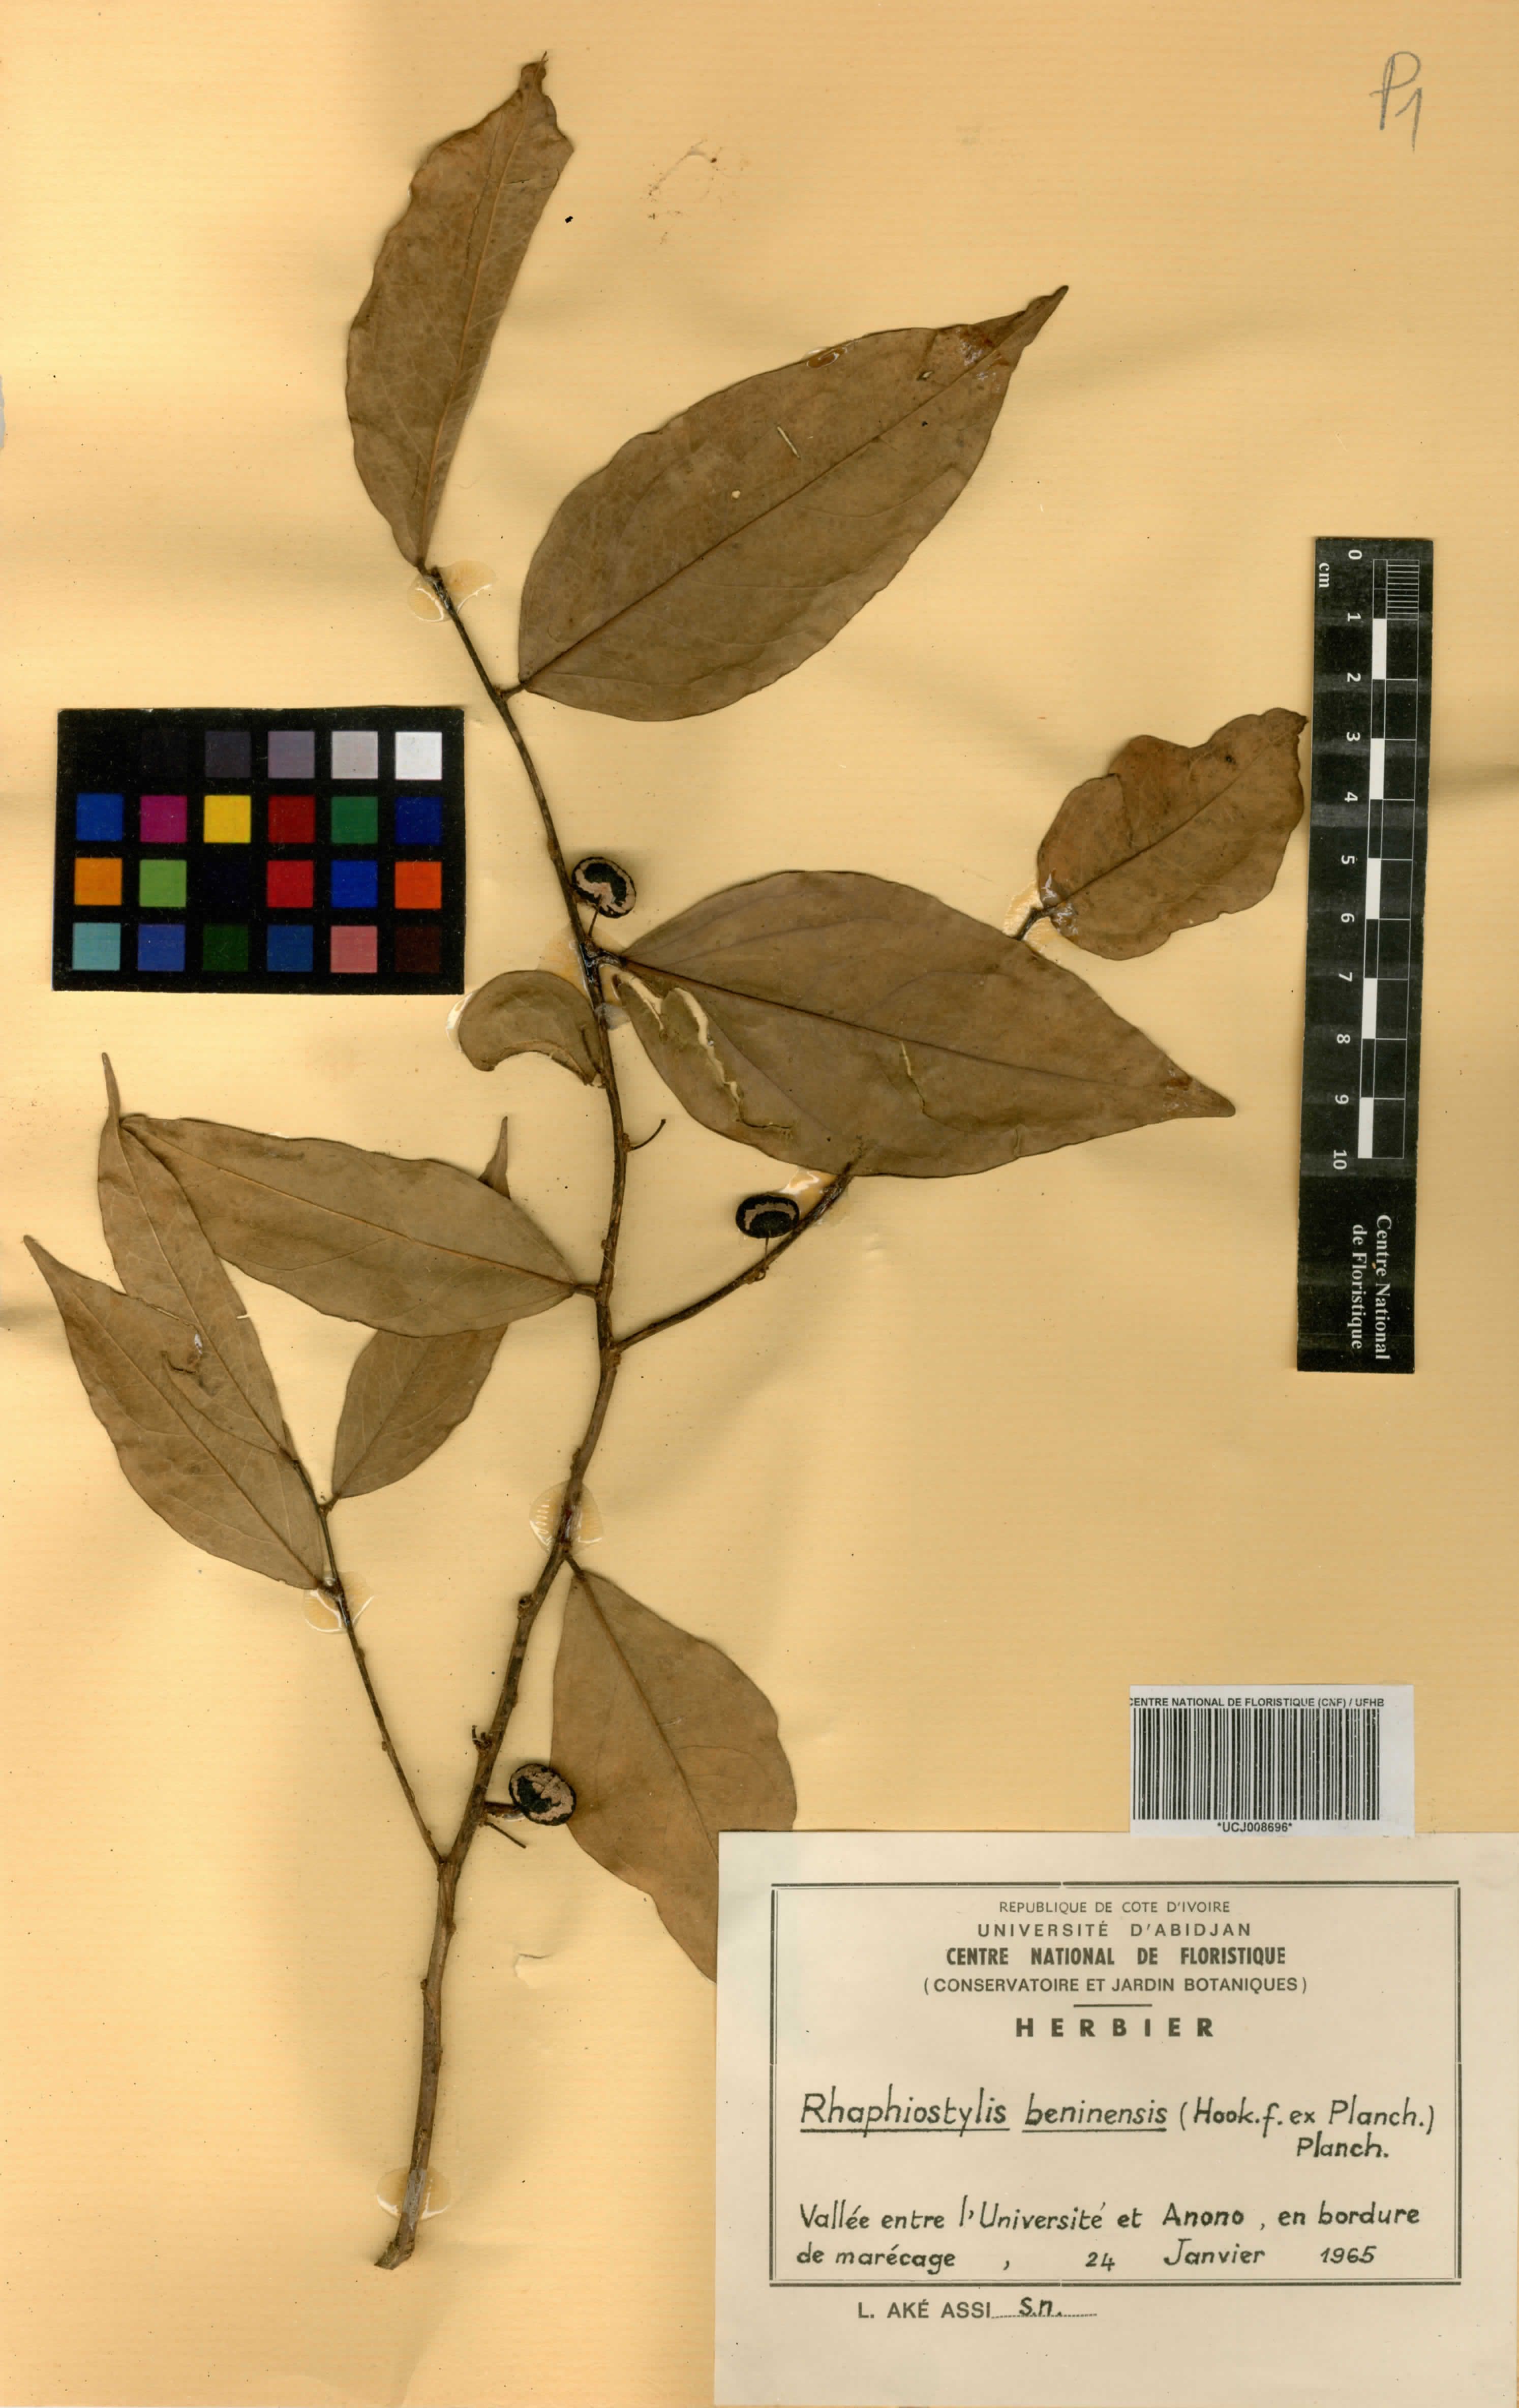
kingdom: Plantae
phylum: Tracheophyta
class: Magnoliopsida
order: Metteniusales
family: Metteniusaceae
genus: Rhaphiostylis
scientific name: Rhaphiostylis beninensis
